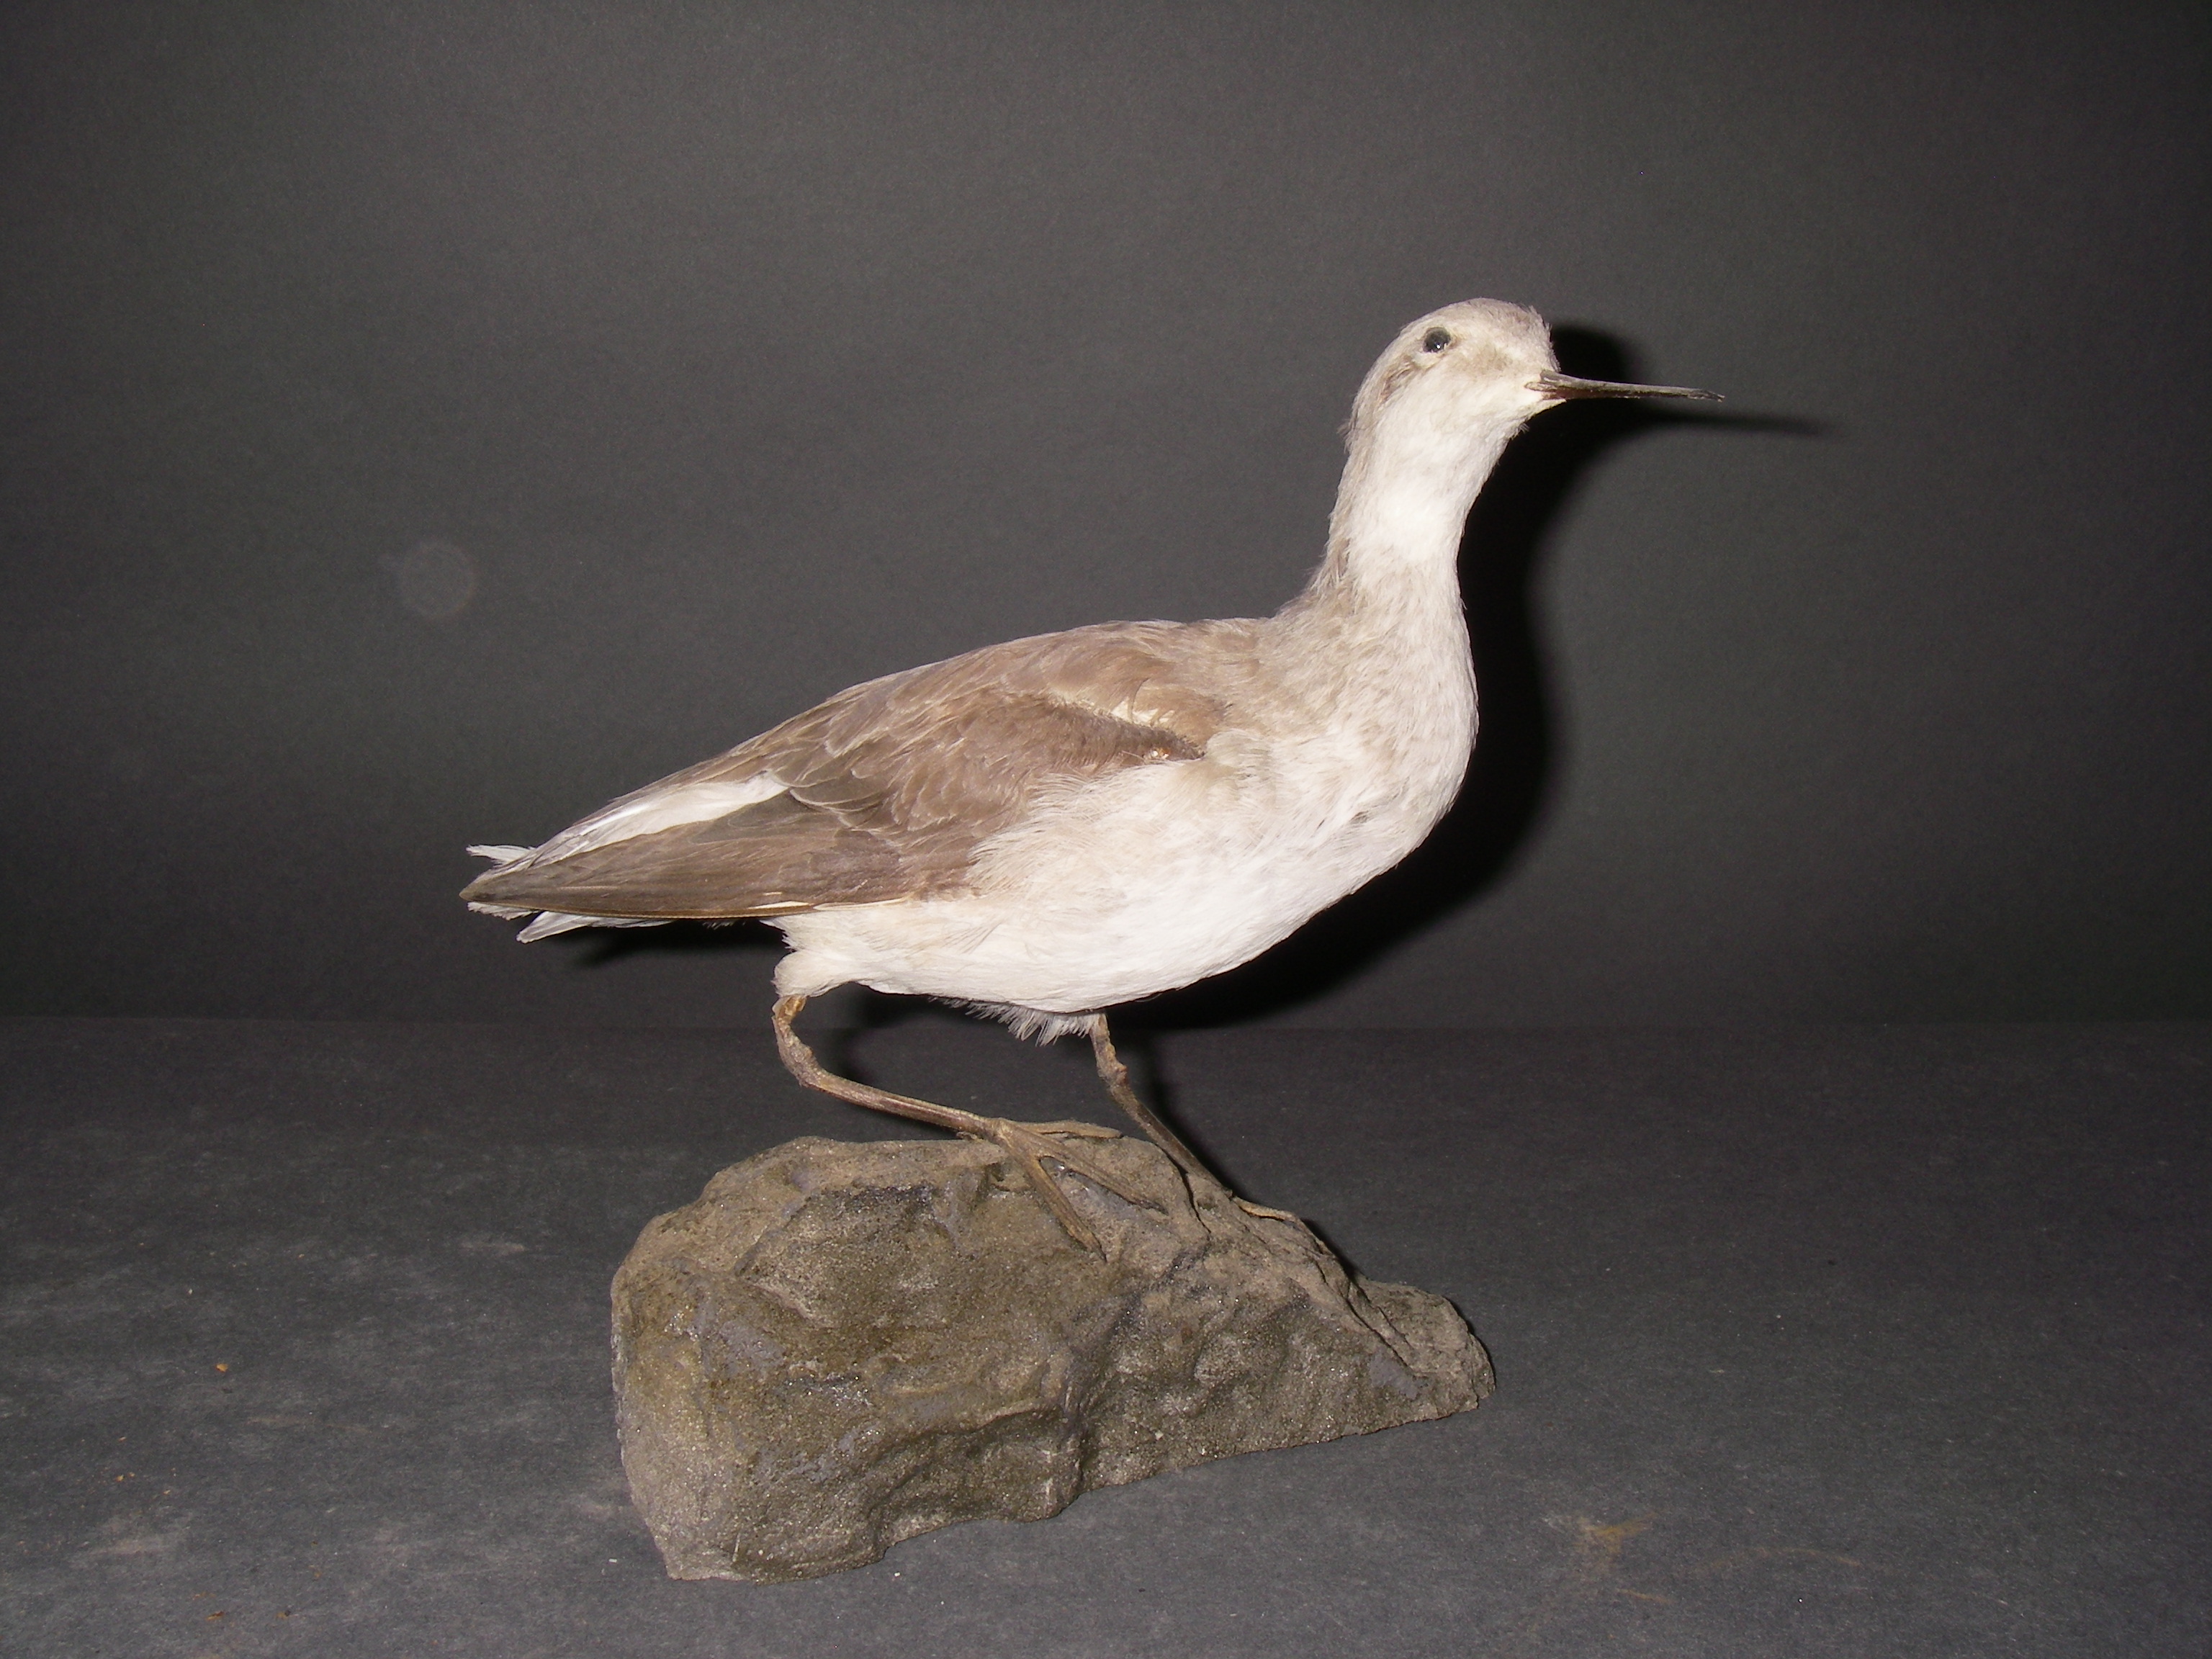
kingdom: Animalia
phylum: Chordata
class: Aves
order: Charadriiformes
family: Scolopacidae
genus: Phalaropus
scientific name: Phalaropus tricolor
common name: Wilson's phalarope
